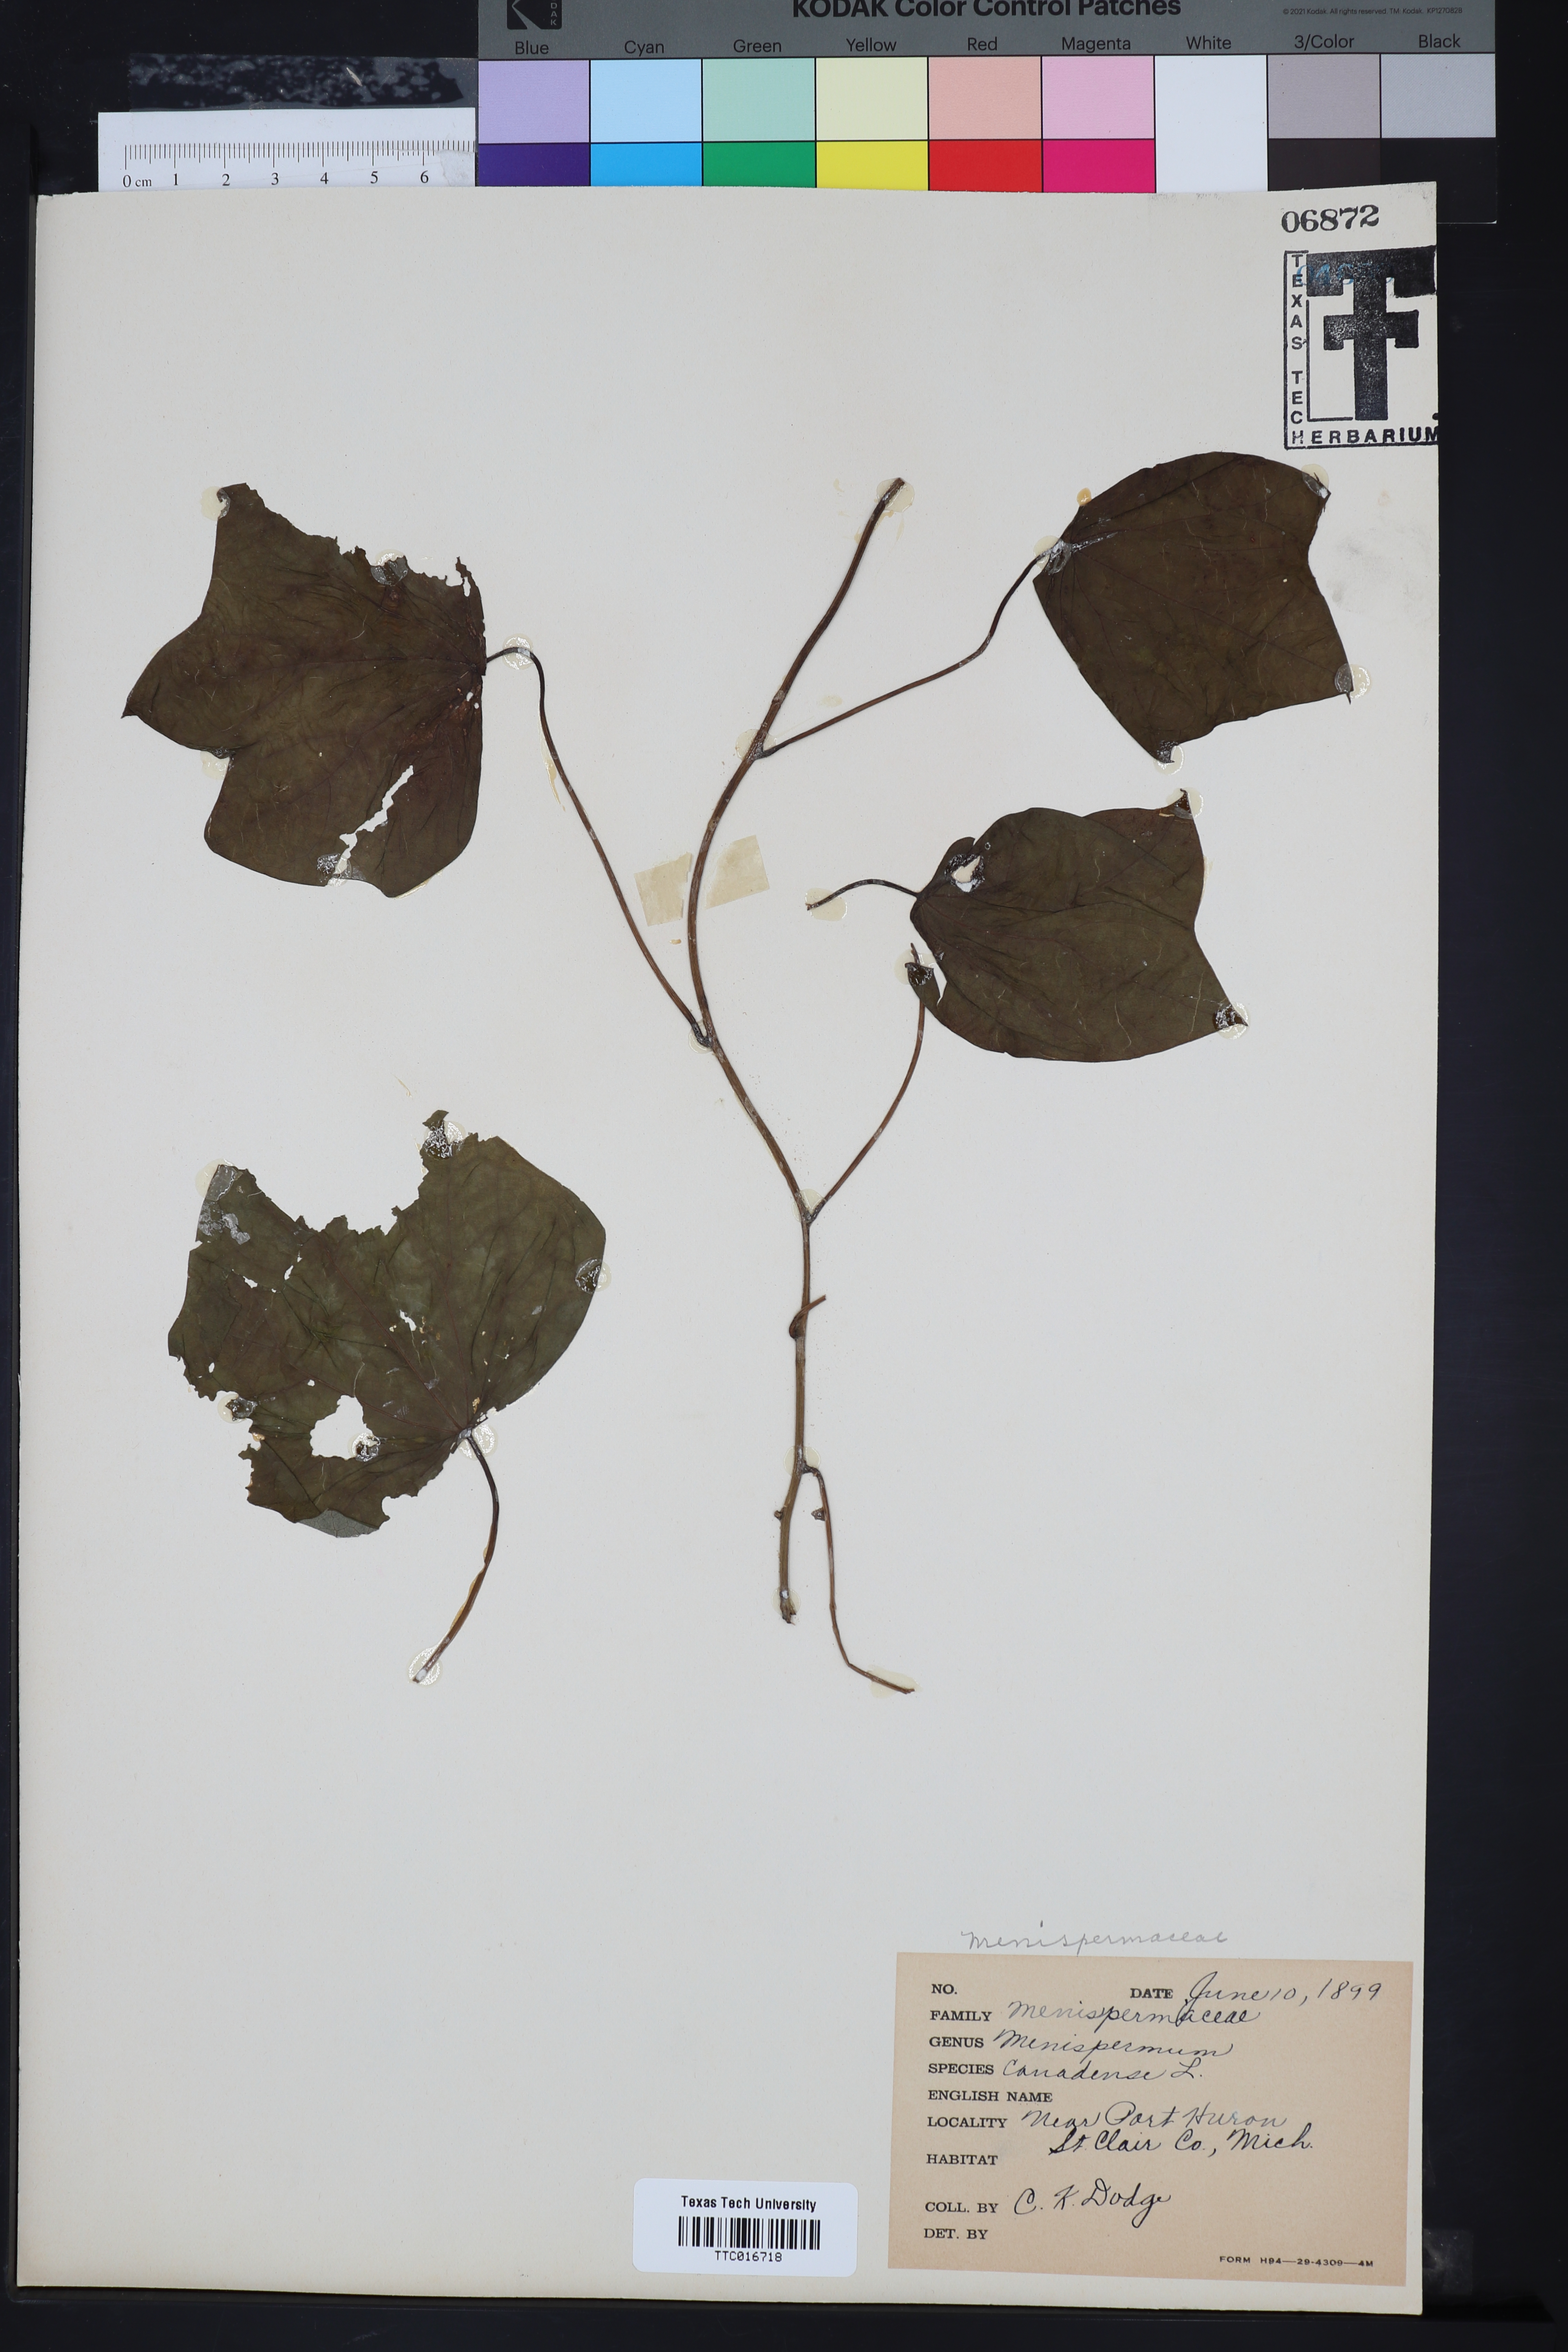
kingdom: Plantae
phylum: Tracheophyta
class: Magnoliopsida
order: Ranunculales
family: Menispermaceae
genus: Menispermum
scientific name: Menispermum canadense
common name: Moonseed
